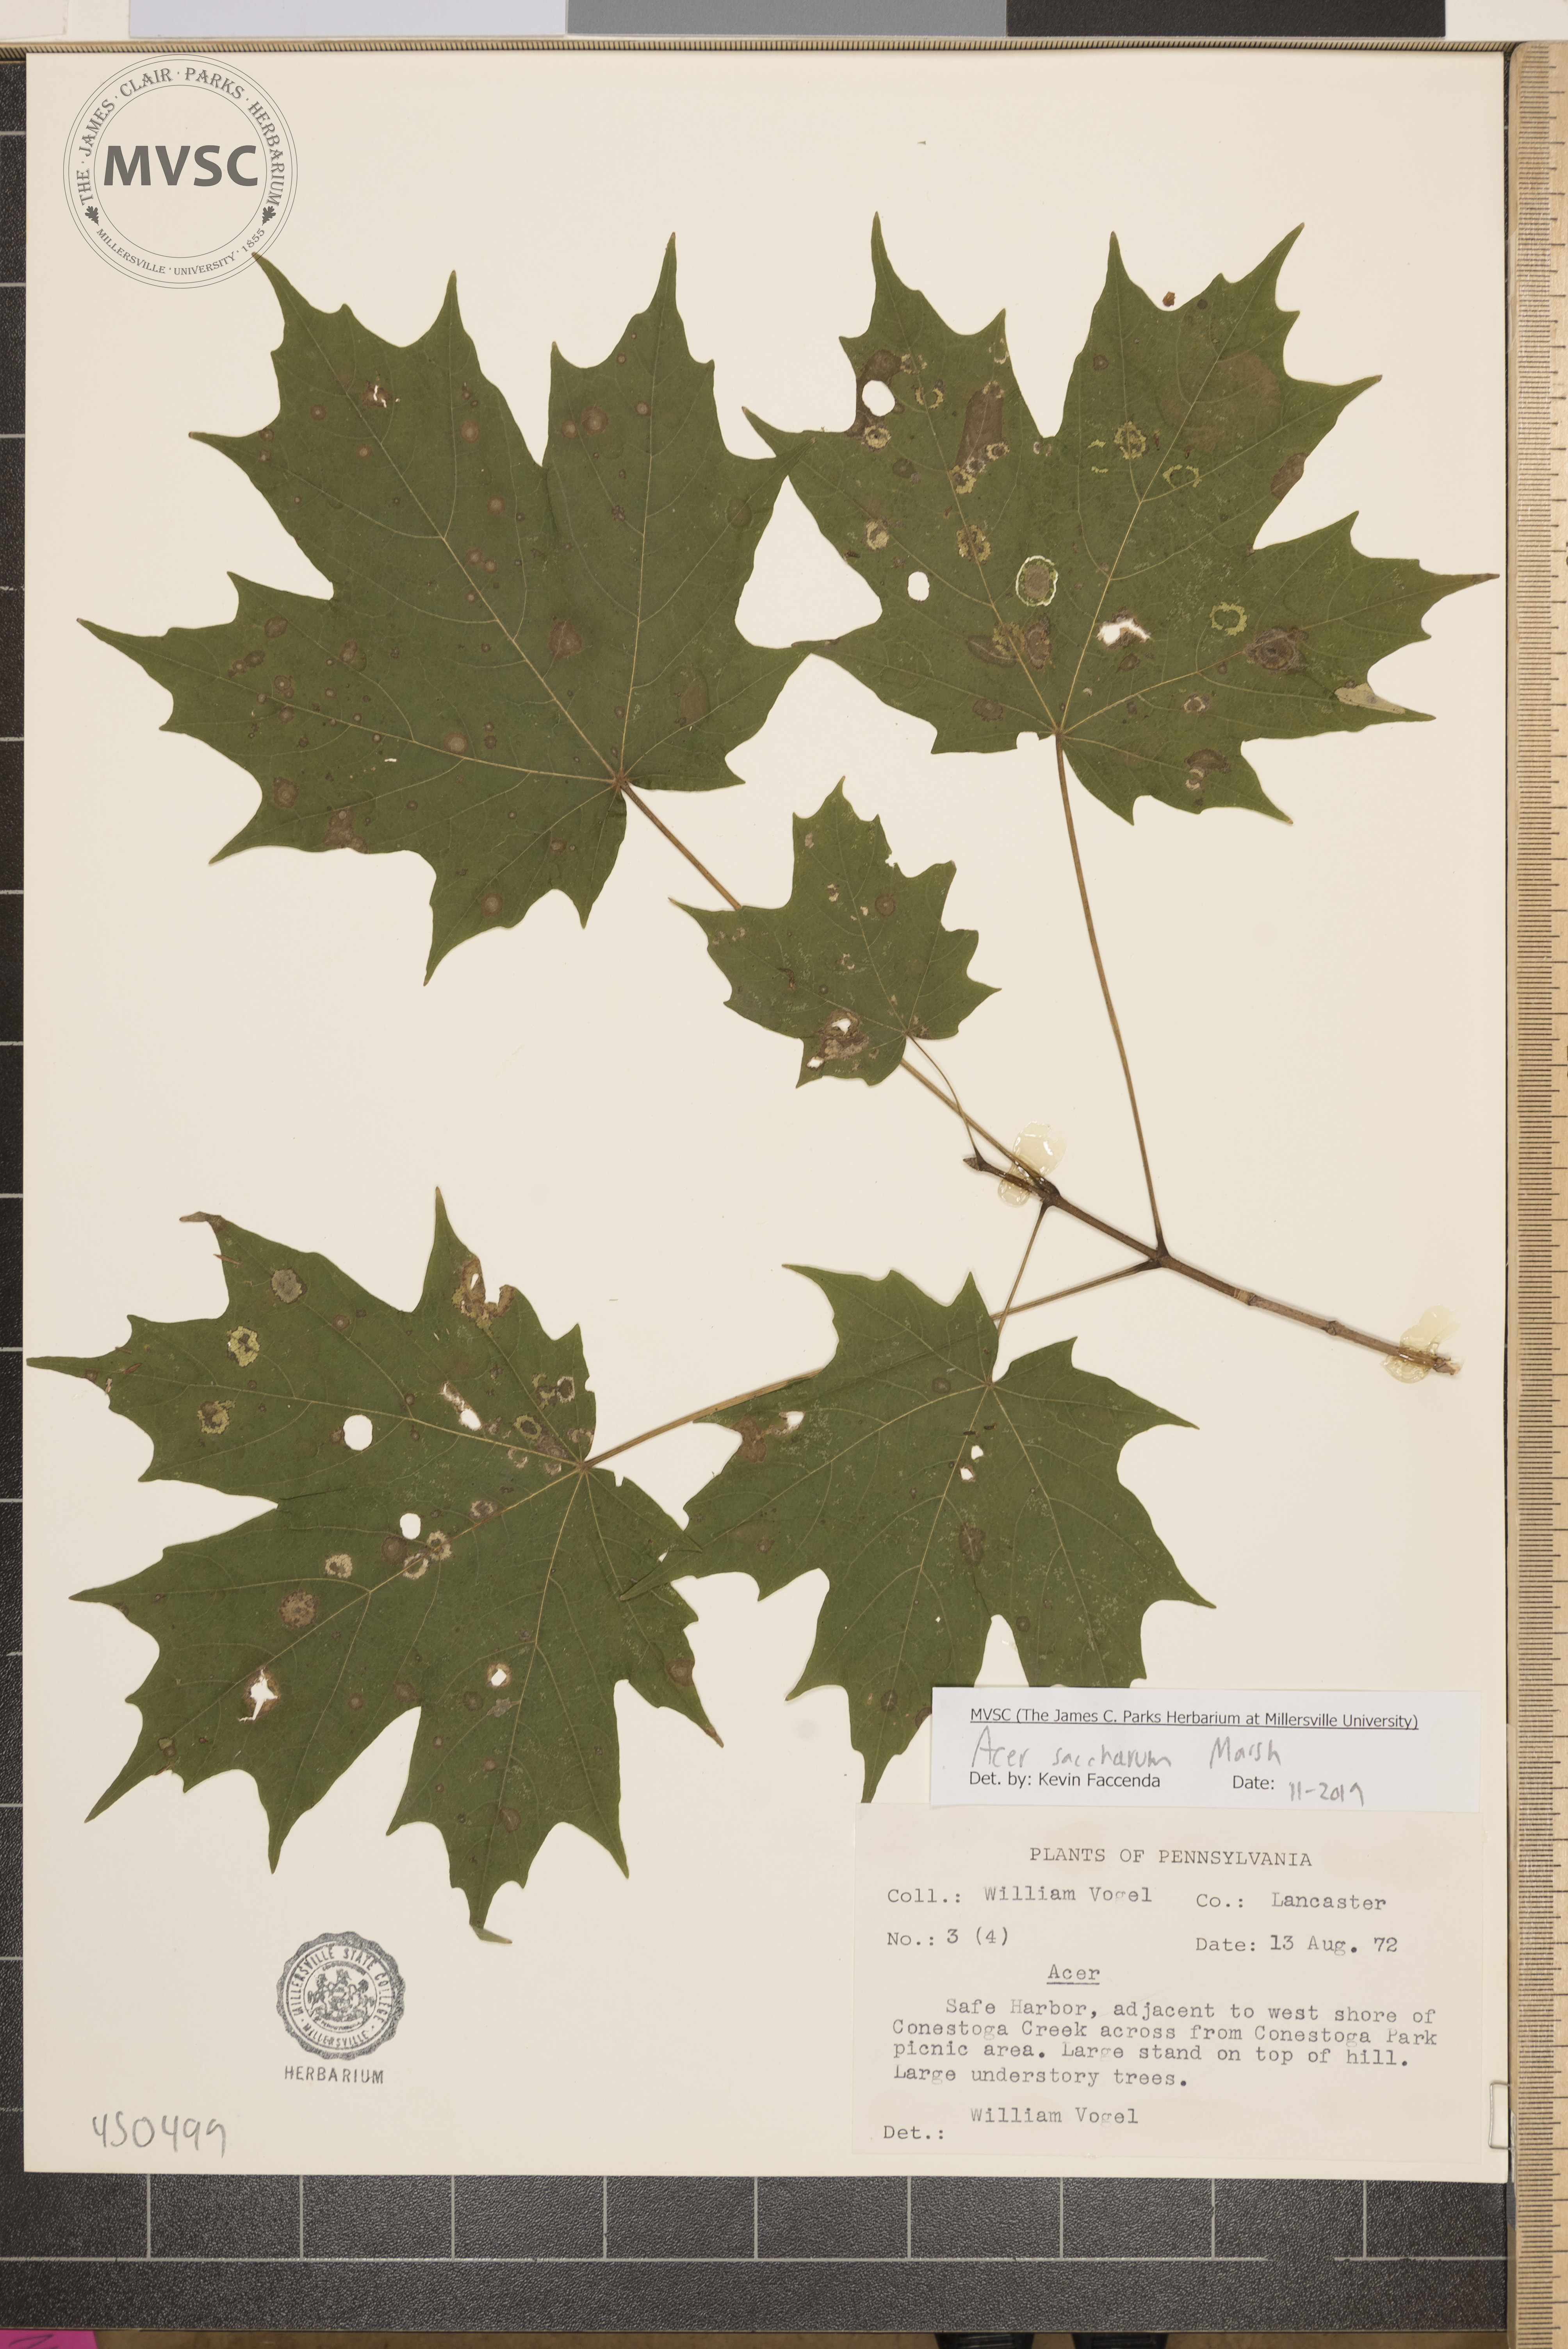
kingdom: Plantae
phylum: Tracheophyta
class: Magnoliopsida
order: Sapindales
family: Sapindaceae
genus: Acer
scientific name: Acer saccharum
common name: Sugar maple
